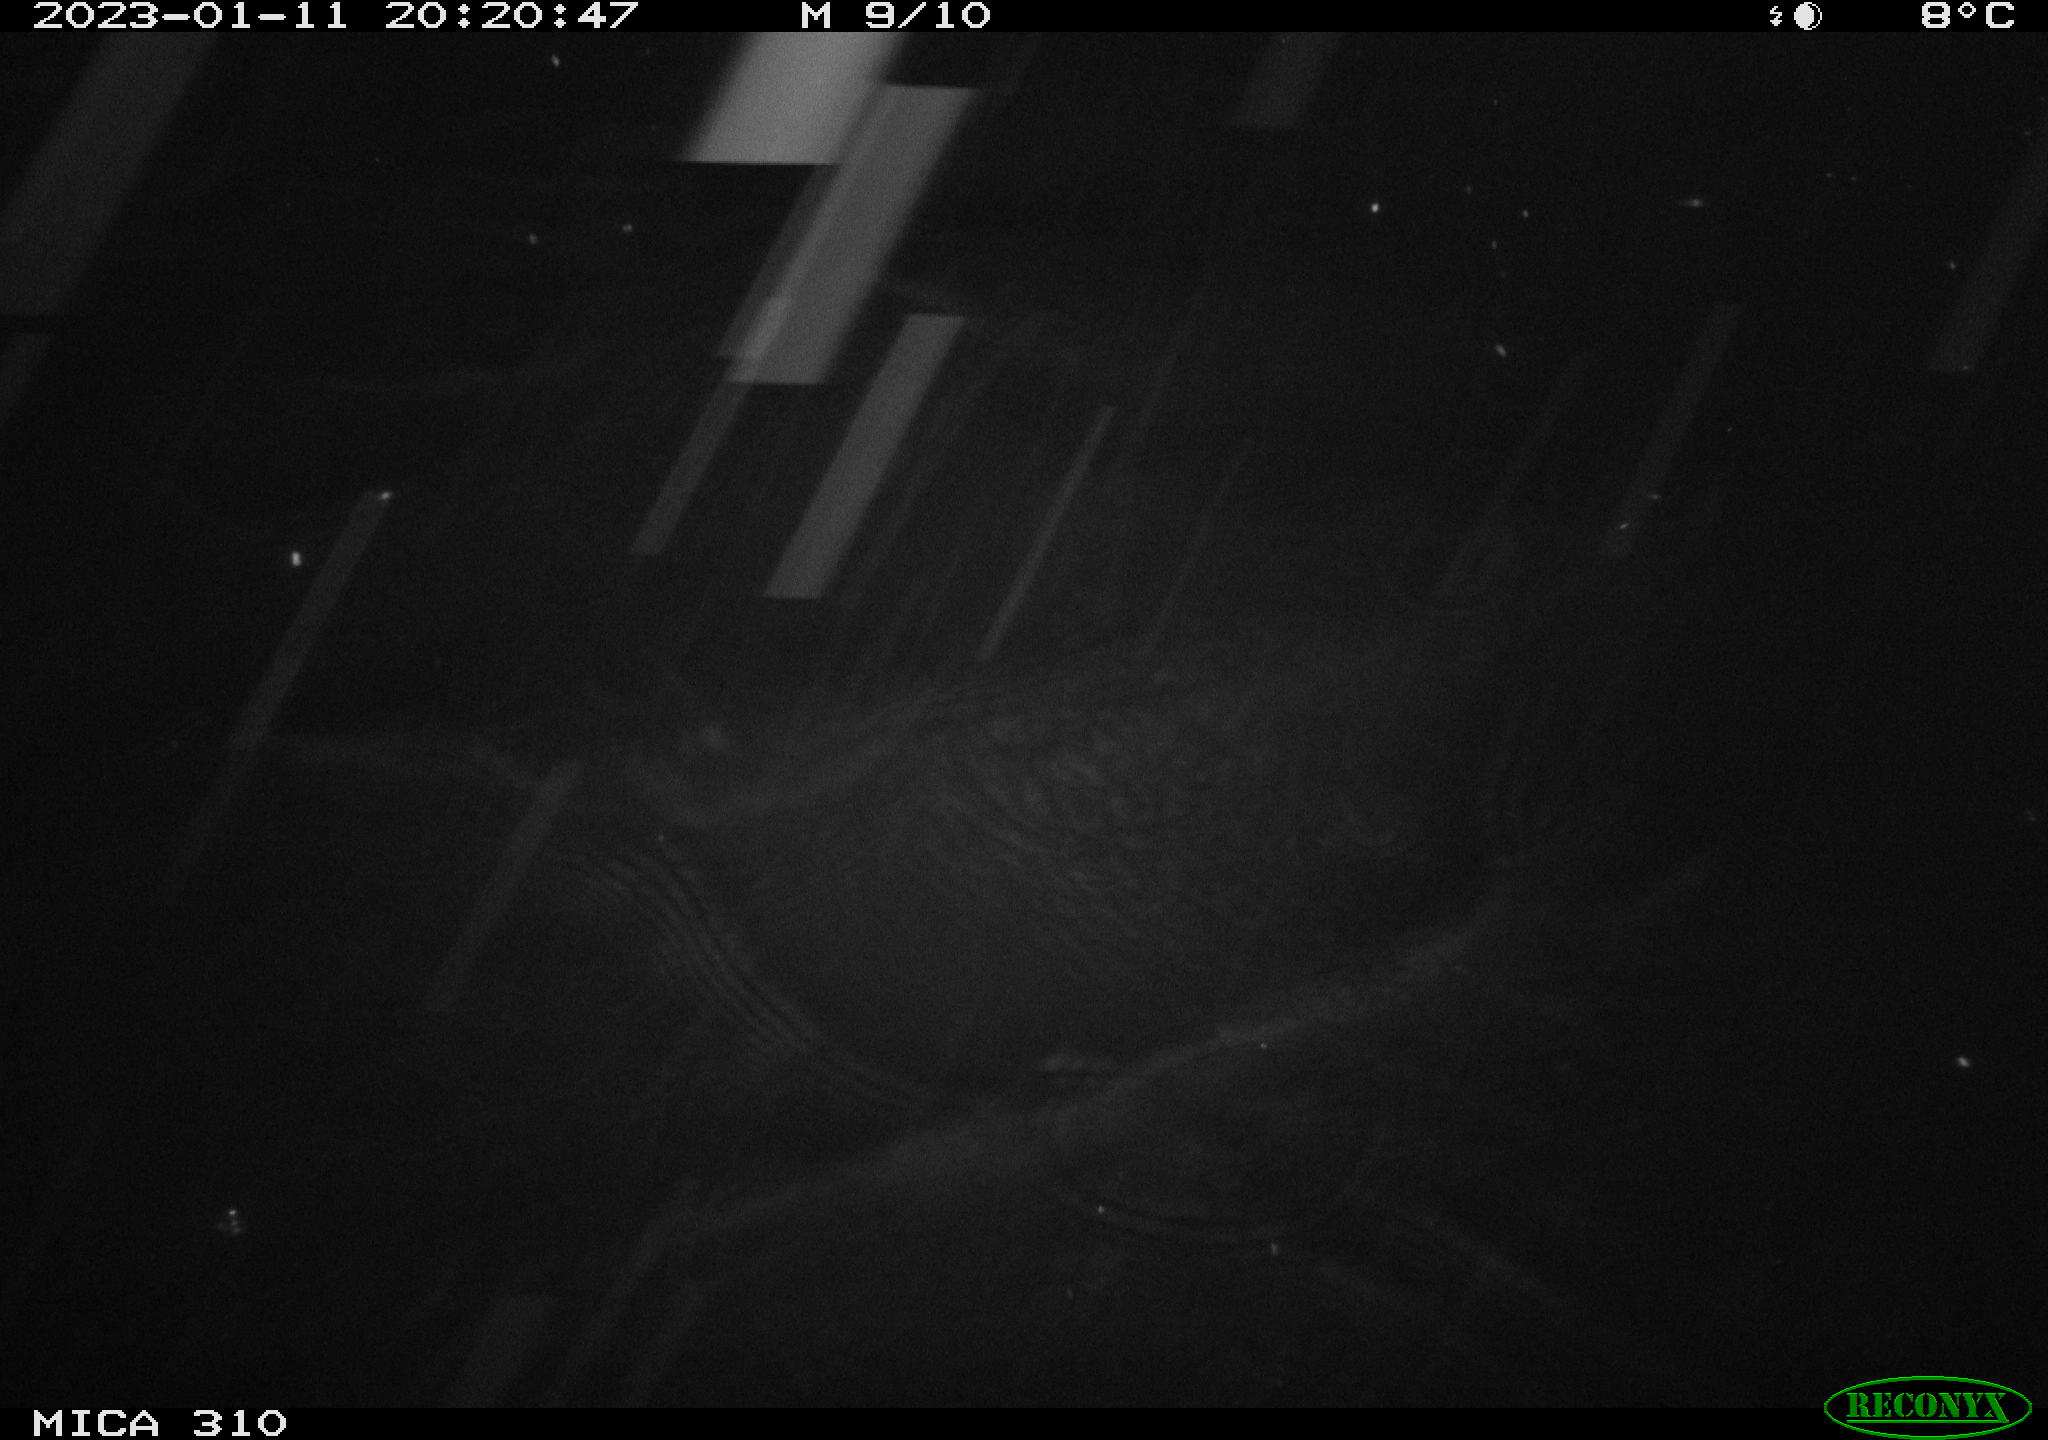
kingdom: Animalia
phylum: Chordata
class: Mammalia
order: Rodentia
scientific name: Rodentia
